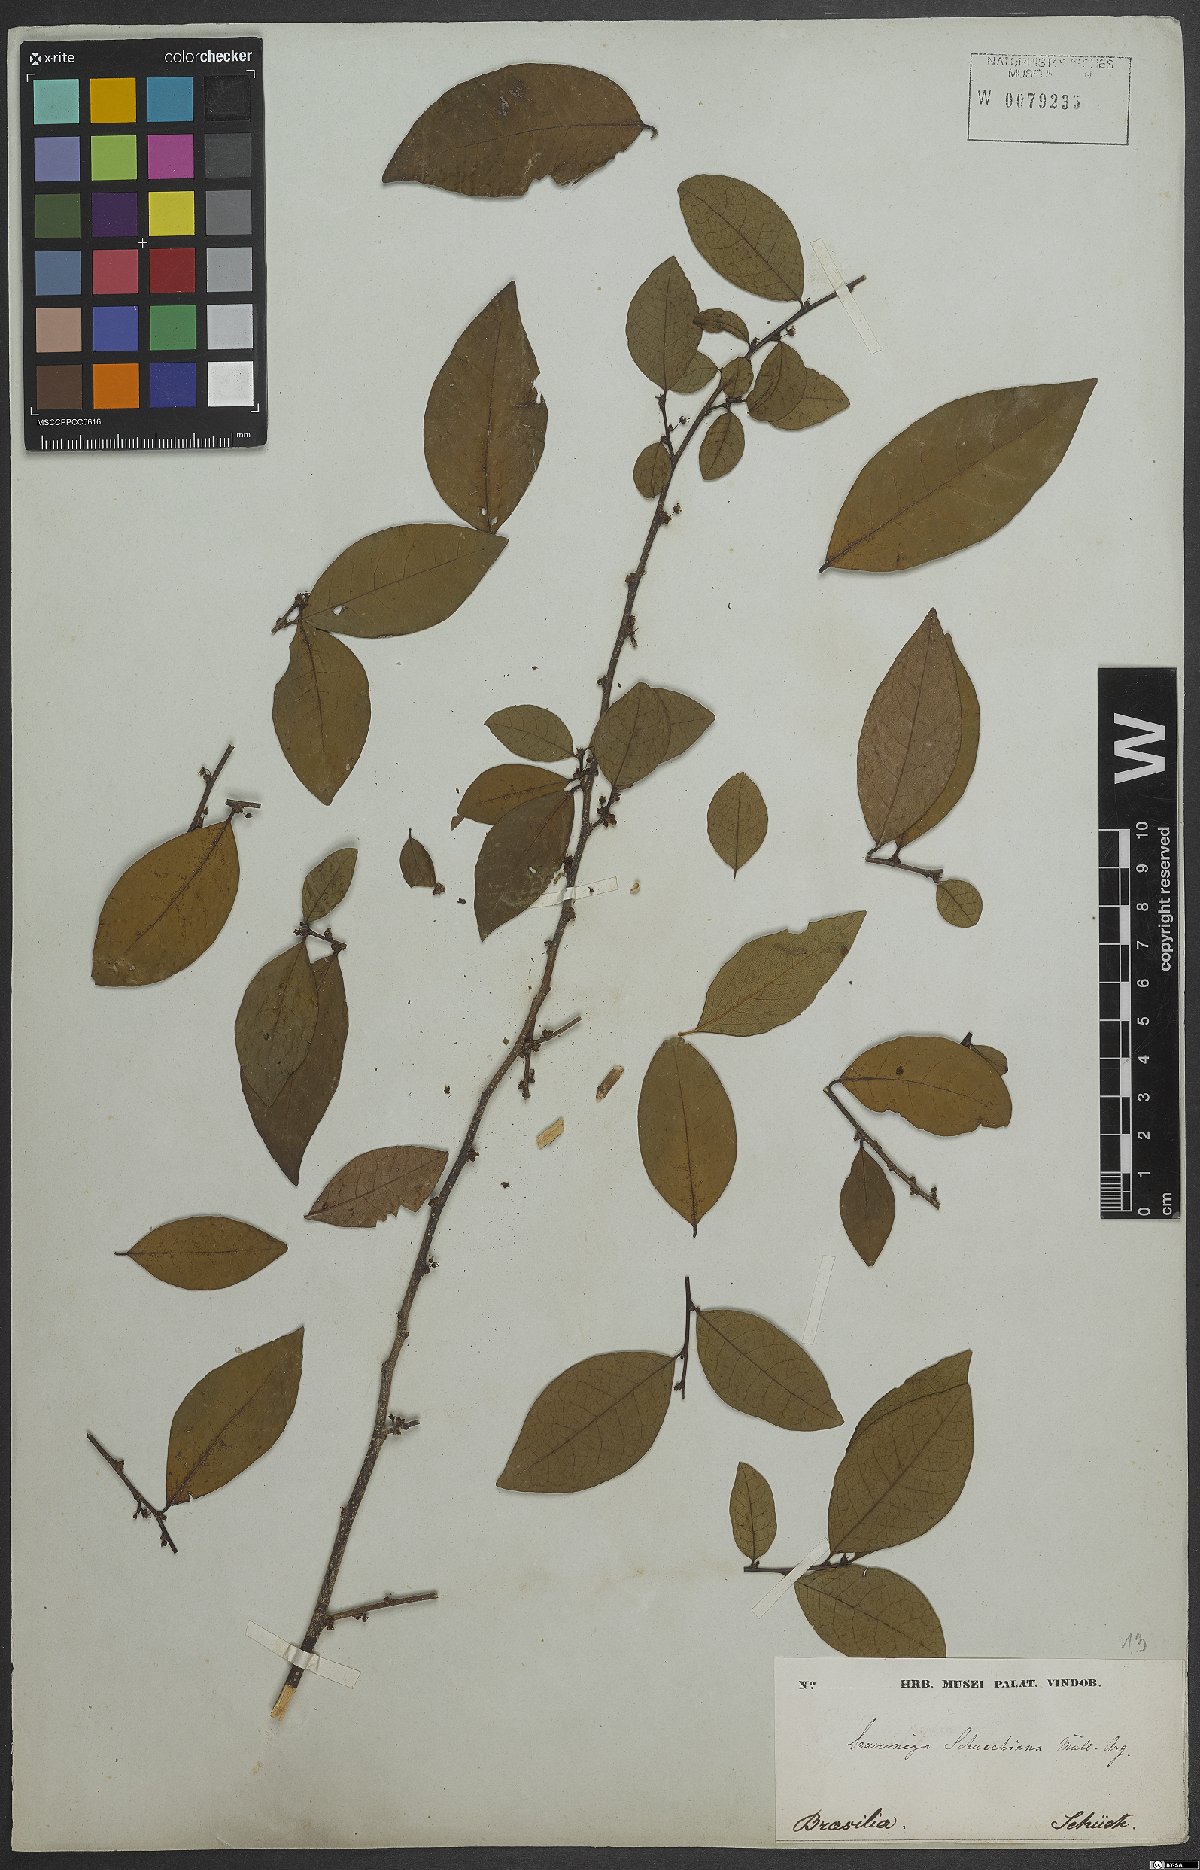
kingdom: Plantae
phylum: Tracheophyta
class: Magnoliopsida
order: Malpighiales
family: Phyllanthaceae
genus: Flueggea
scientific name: Flueggea schuechiana
